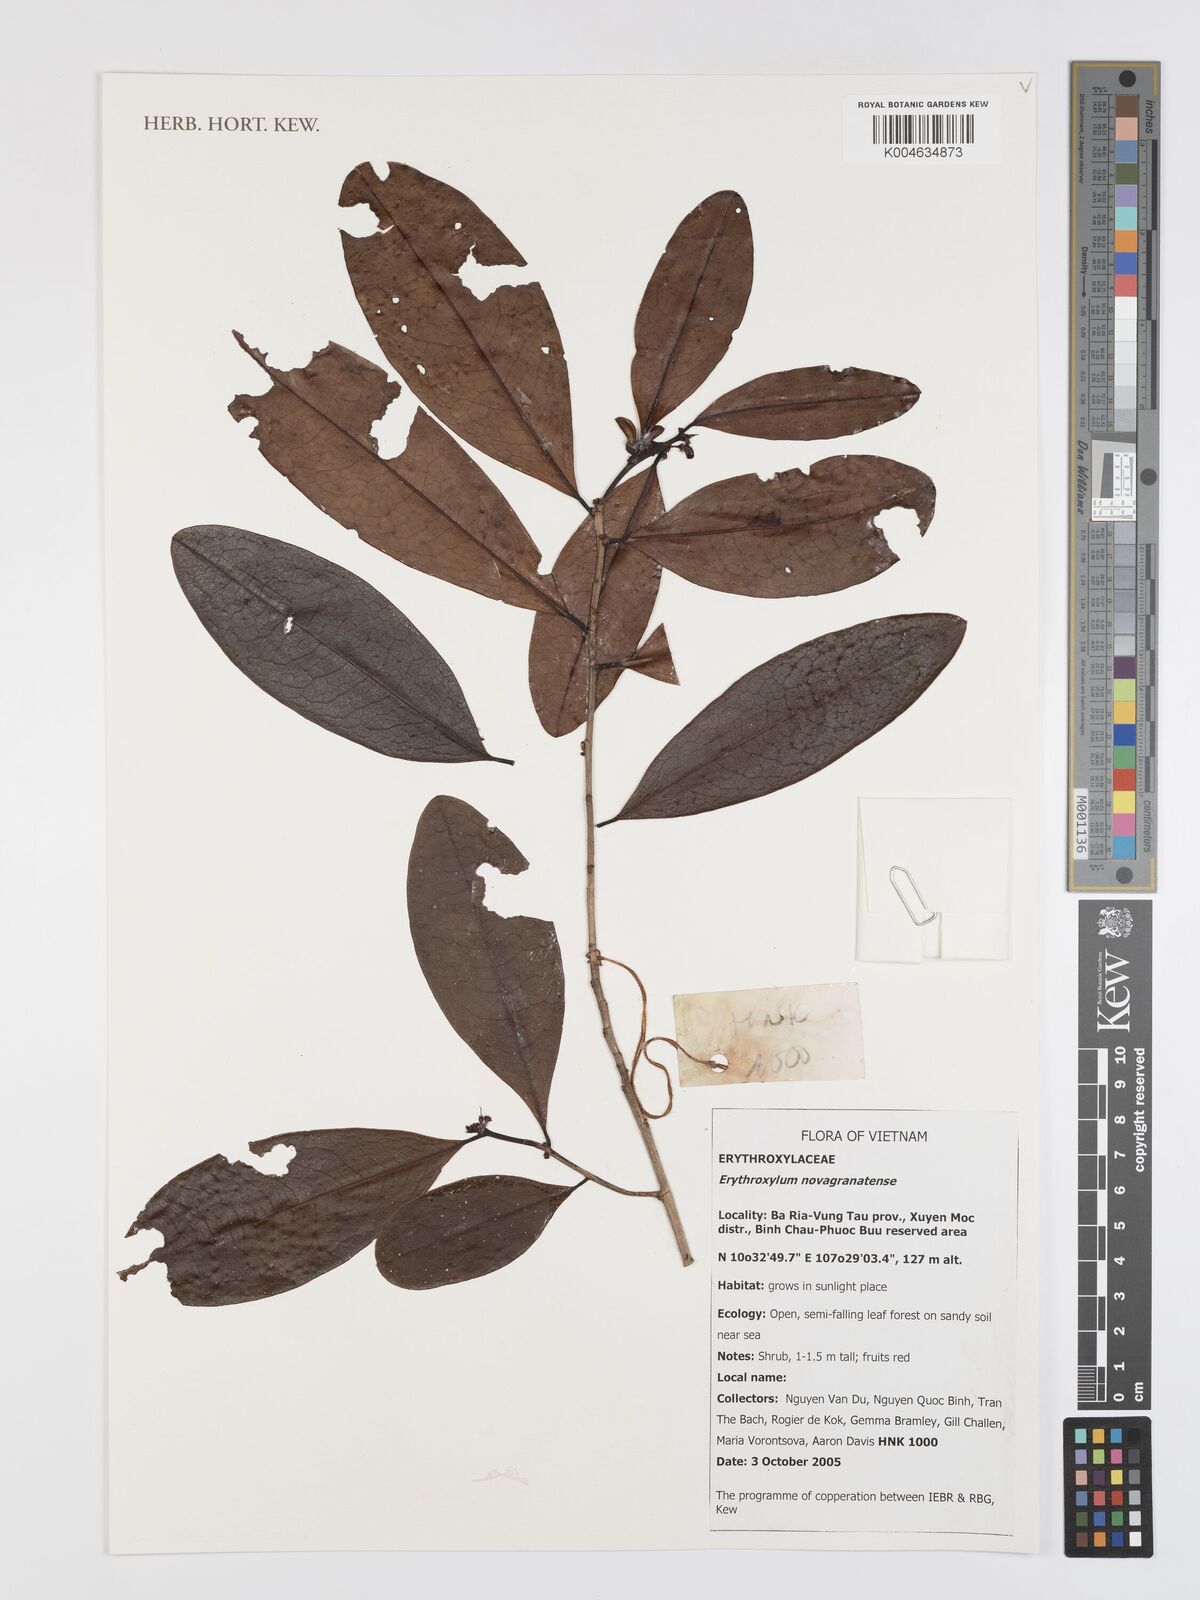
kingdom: Plantae
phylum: Tracheophyta
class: Magnoliopsida
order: Malpighiales
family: Erythroxylaceae
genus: Erythroxylum
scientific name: Erythroxylum novogranatense
